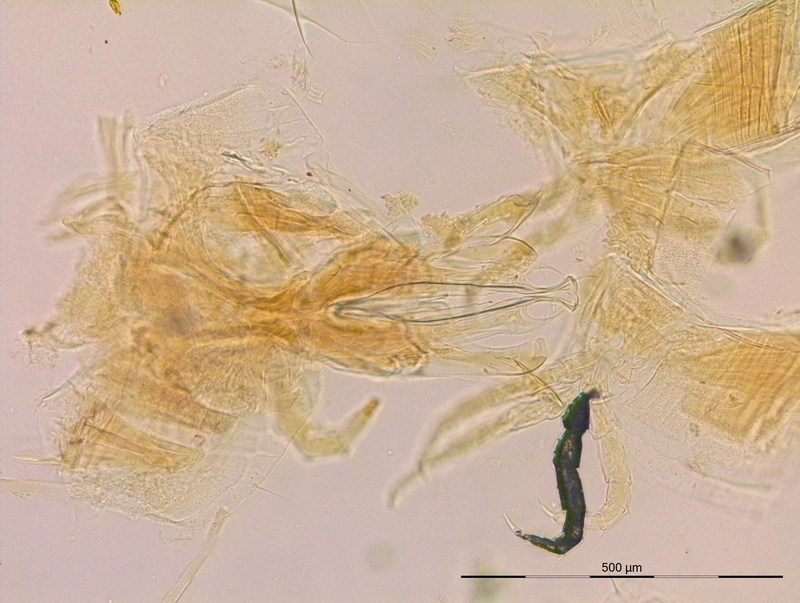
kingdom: Animalia
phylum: Arthropoda
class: Diplopoda
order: Julida
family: Rhopaloiulidae
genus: Rhopaloiulus
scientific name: Rhopaloiulus cameratanus
